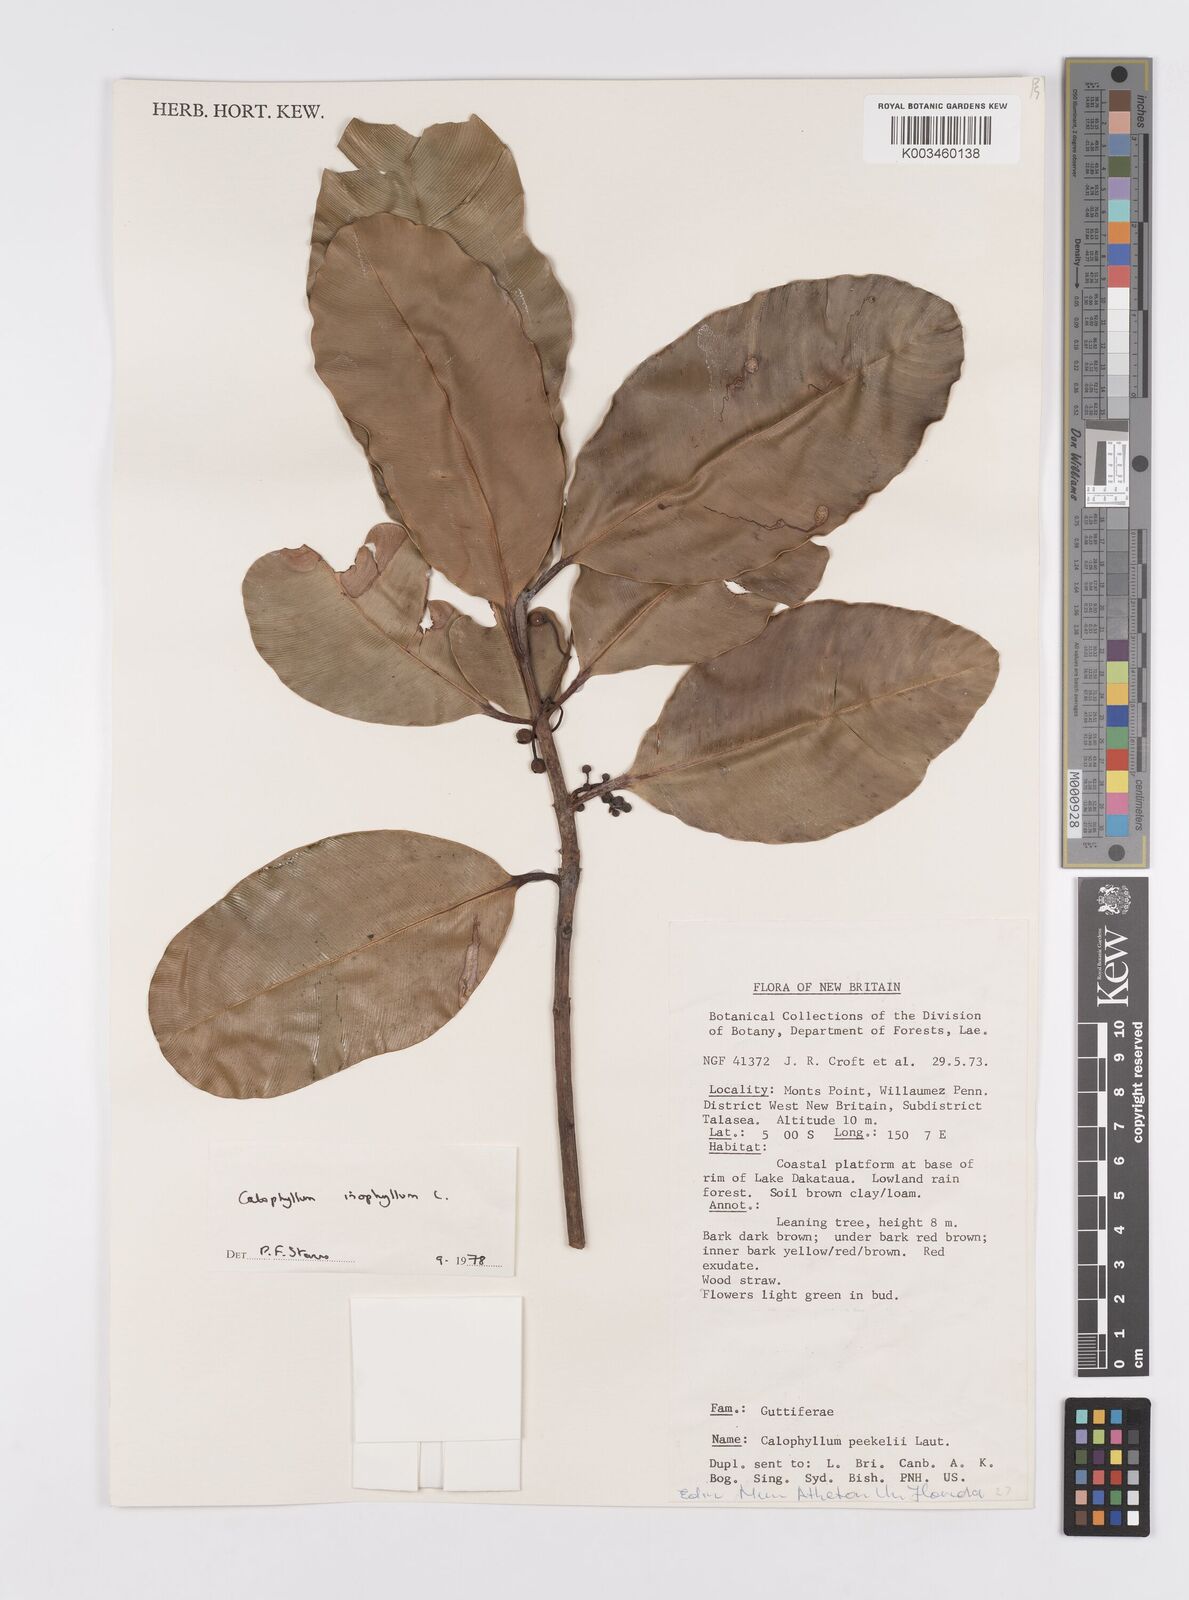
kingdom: Plantae
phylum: Tracheophyta
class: Magnoliopsida
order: Malpighiales
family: Calophyllaceae
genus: Calophyllum
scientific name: Calophyllum inophyllum
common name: Alexandrian laurel
